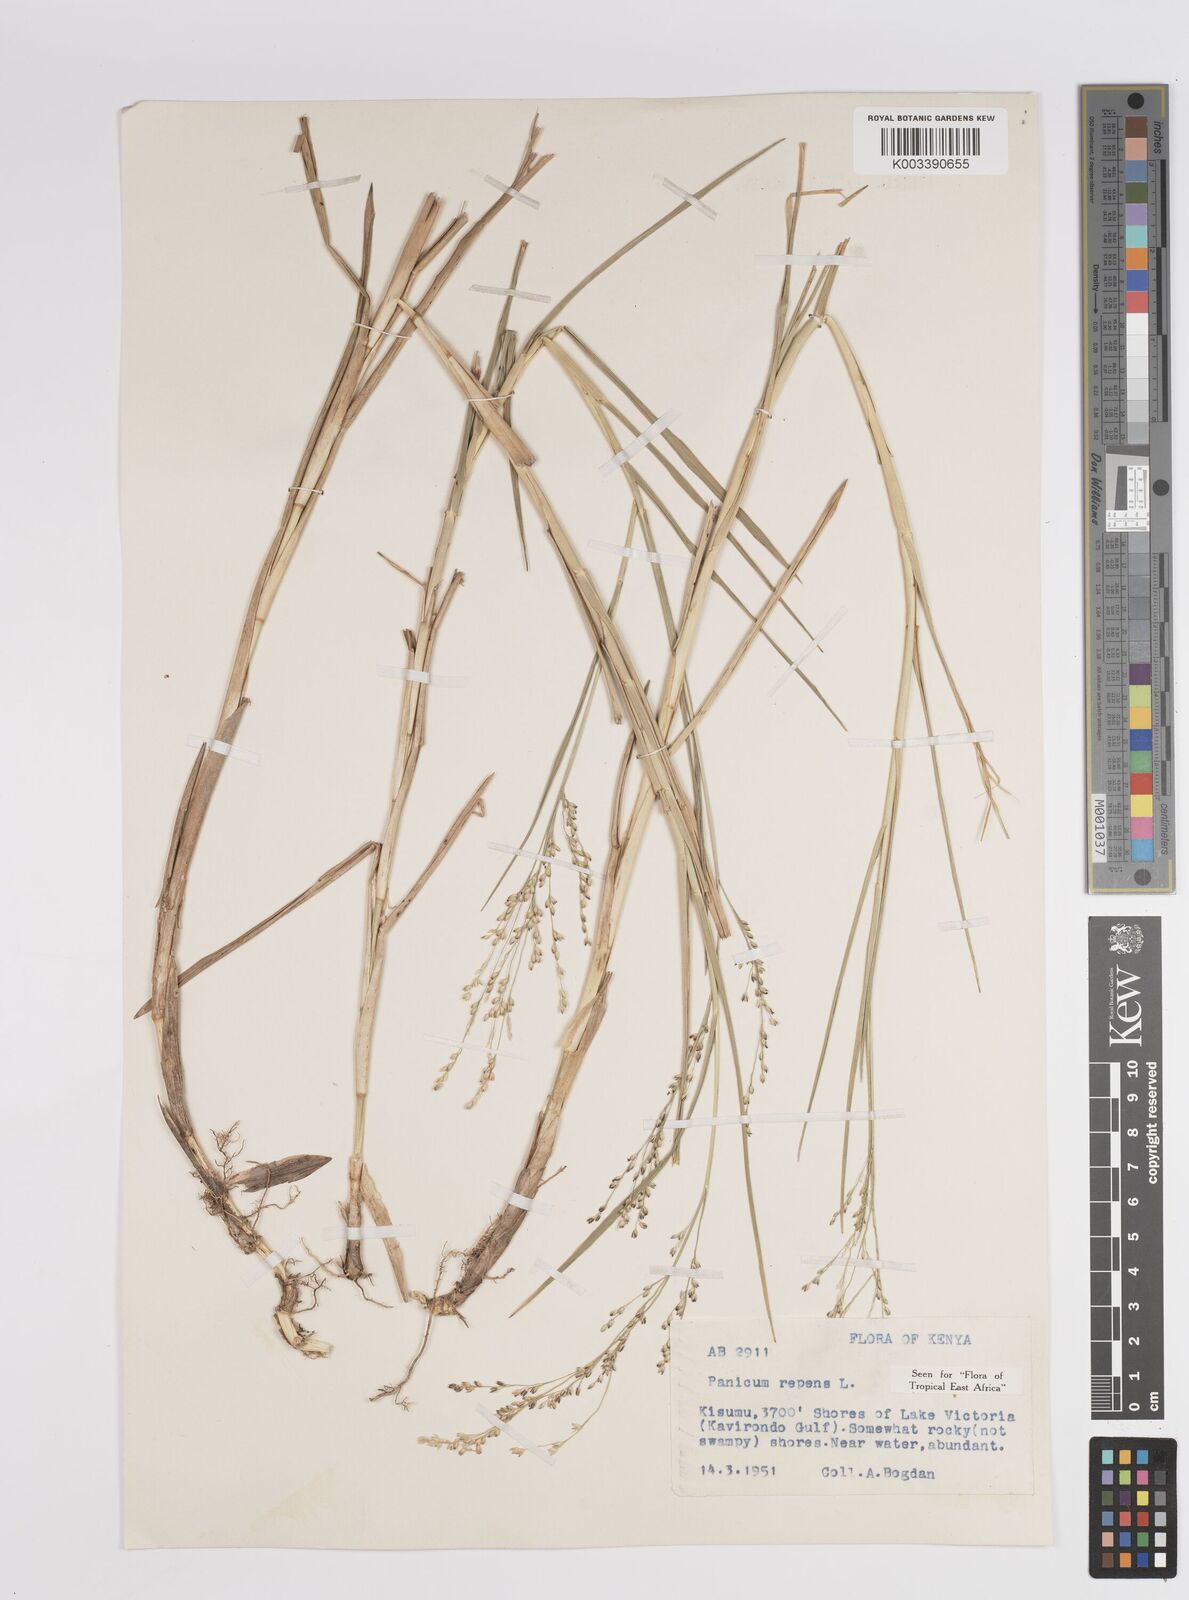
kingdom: Plantae
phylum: Tracheophyta
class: Liliopsida
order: Poales
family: Poaceae
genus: Panicum
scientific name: Panicum repens
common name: Torpedo grass
